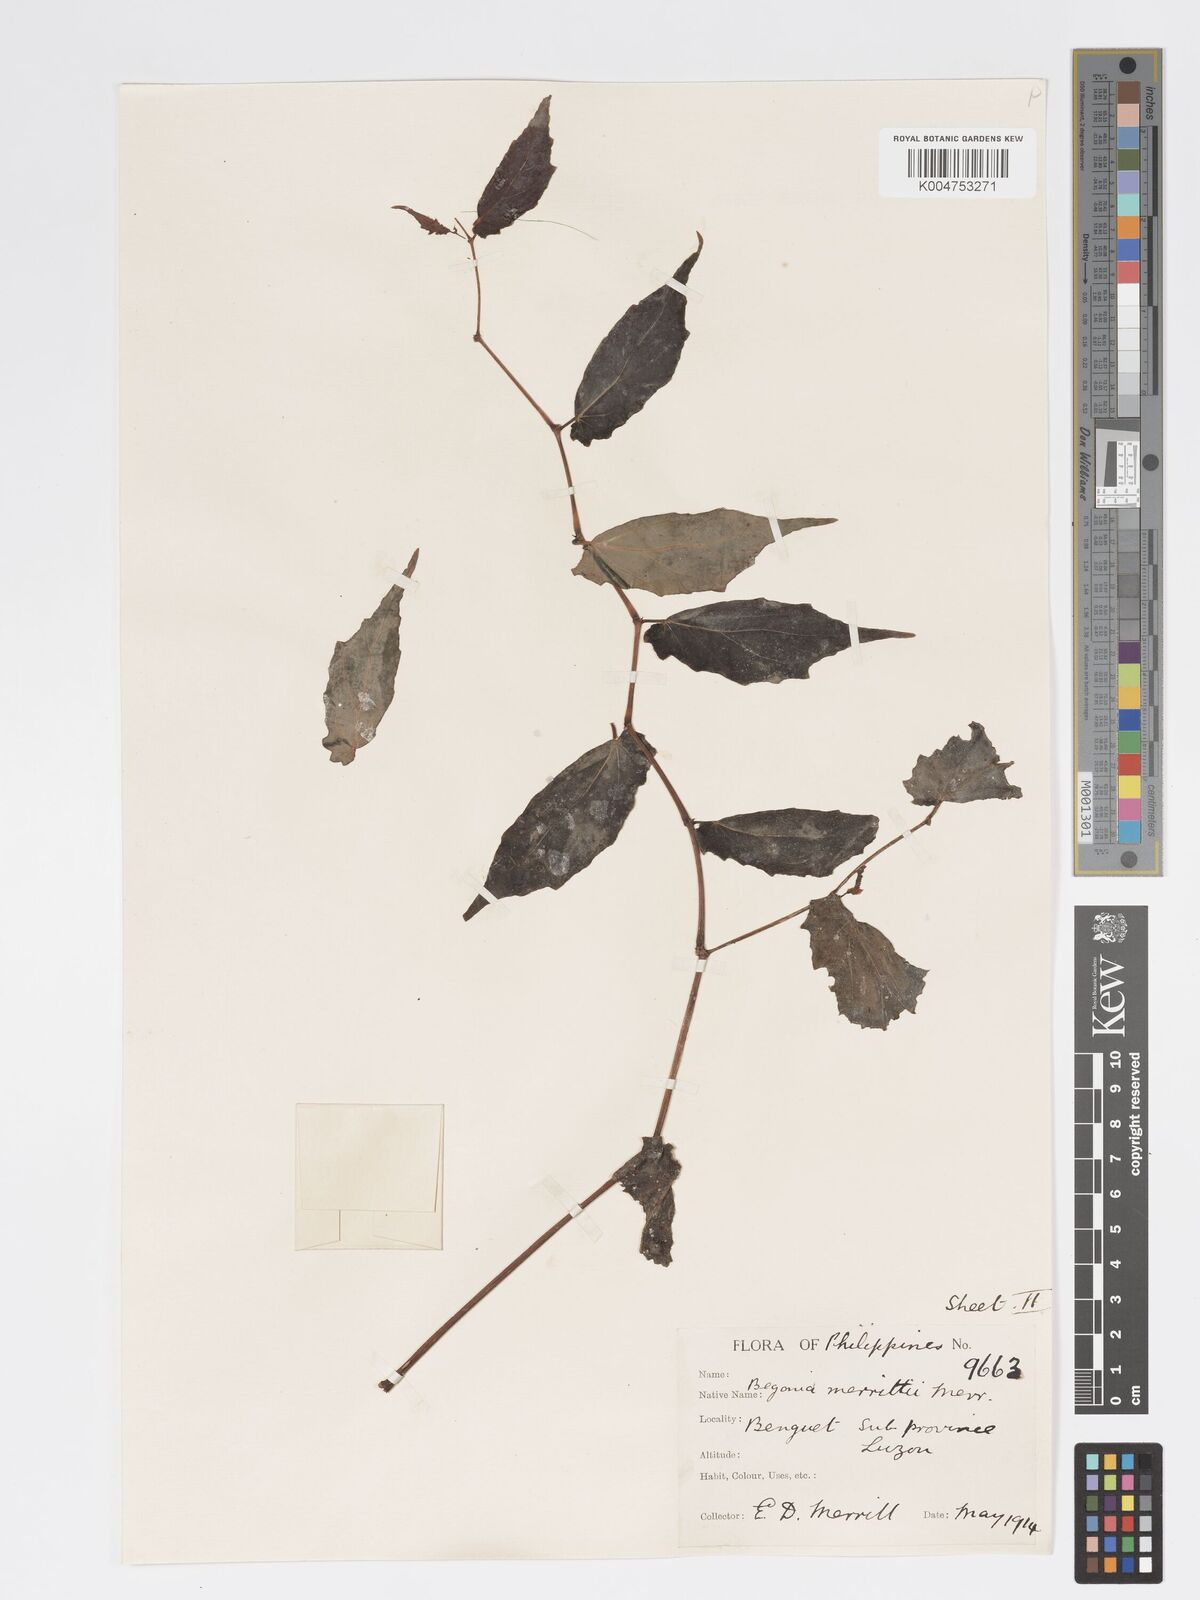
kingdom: Plantae
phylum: Tracheophyta
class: Magnoliopsida
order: Cucurbitales
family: Begoniaceae
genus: Begonia
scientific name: Begonia merrittii
